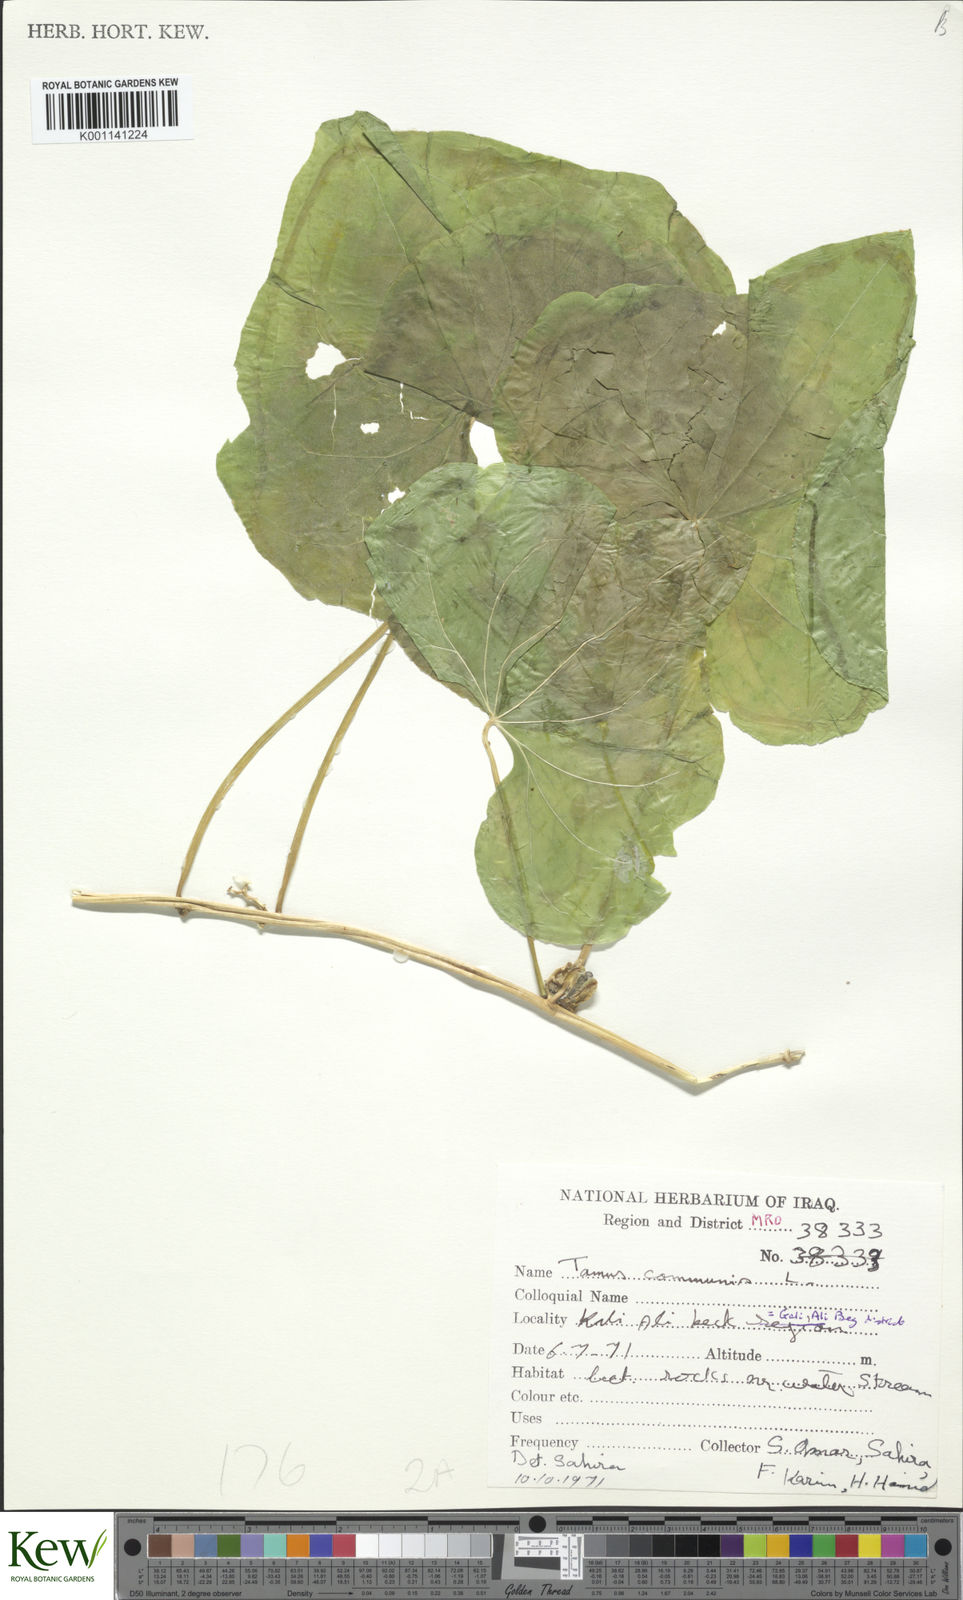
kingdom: Plantae
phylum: Tracheophyta
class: Liliopsida
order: Dioscoreales
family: Dioscoreaceae
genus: Dioscorea
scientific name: Dioscorea communis
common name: Black-bindweed
